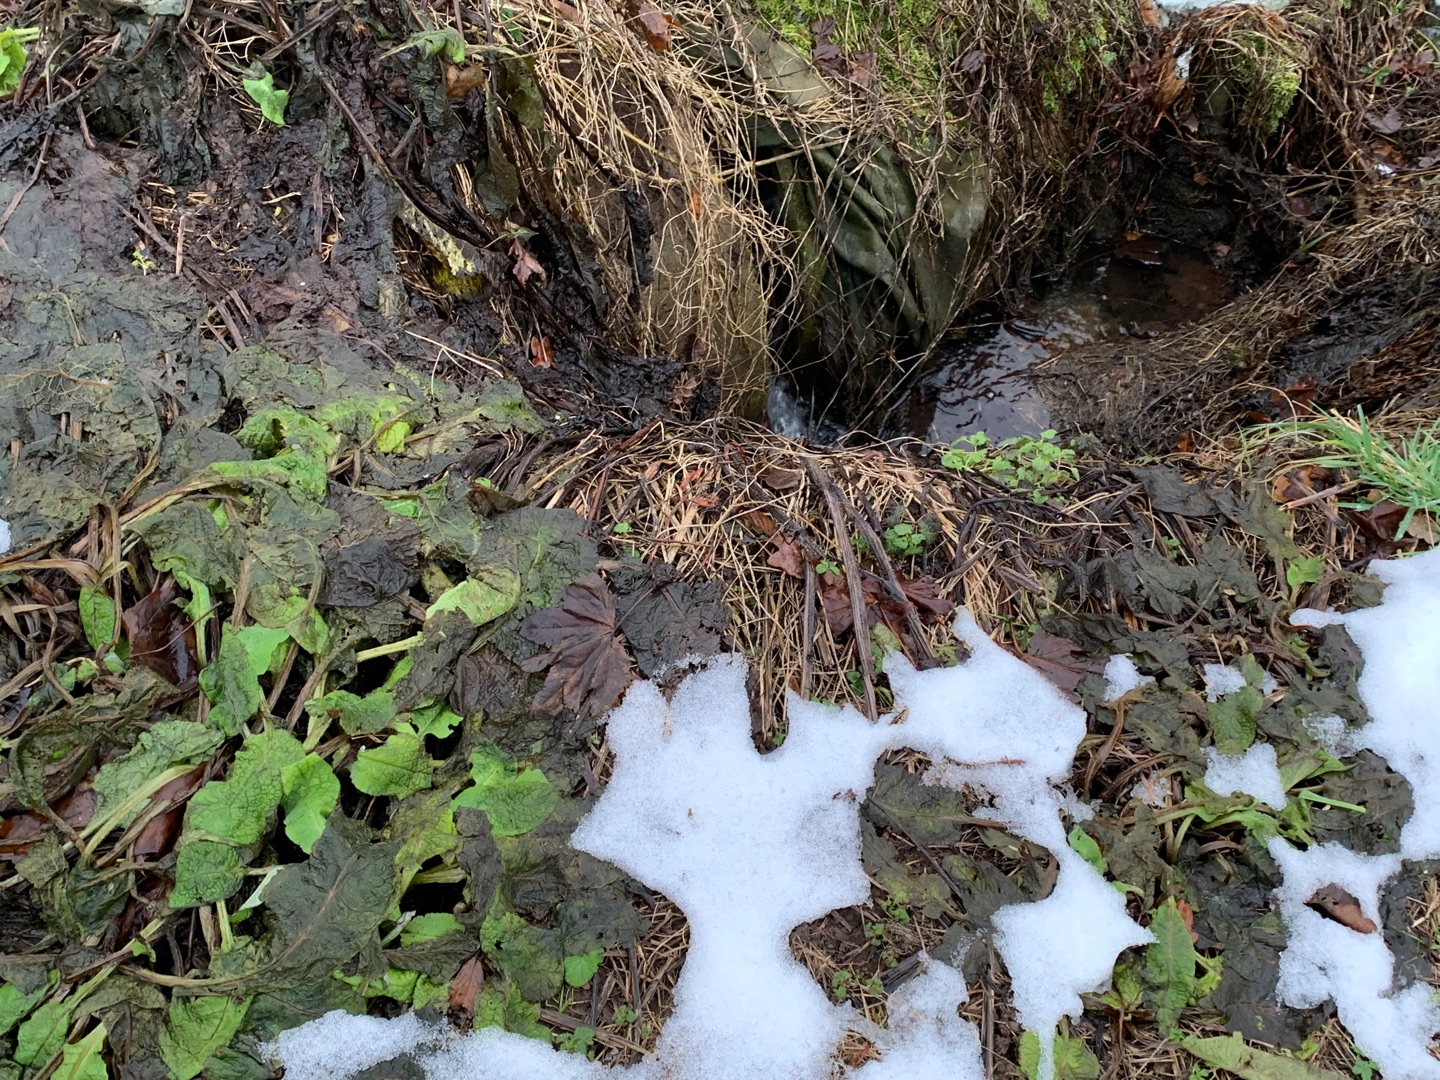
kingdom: Plantae
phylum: Tracheophyta
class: Magnoliopsida
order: Boraginales
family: Boraginaceae
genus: Symphytum
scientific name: Symphytum
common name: Kulsukkerslægten
